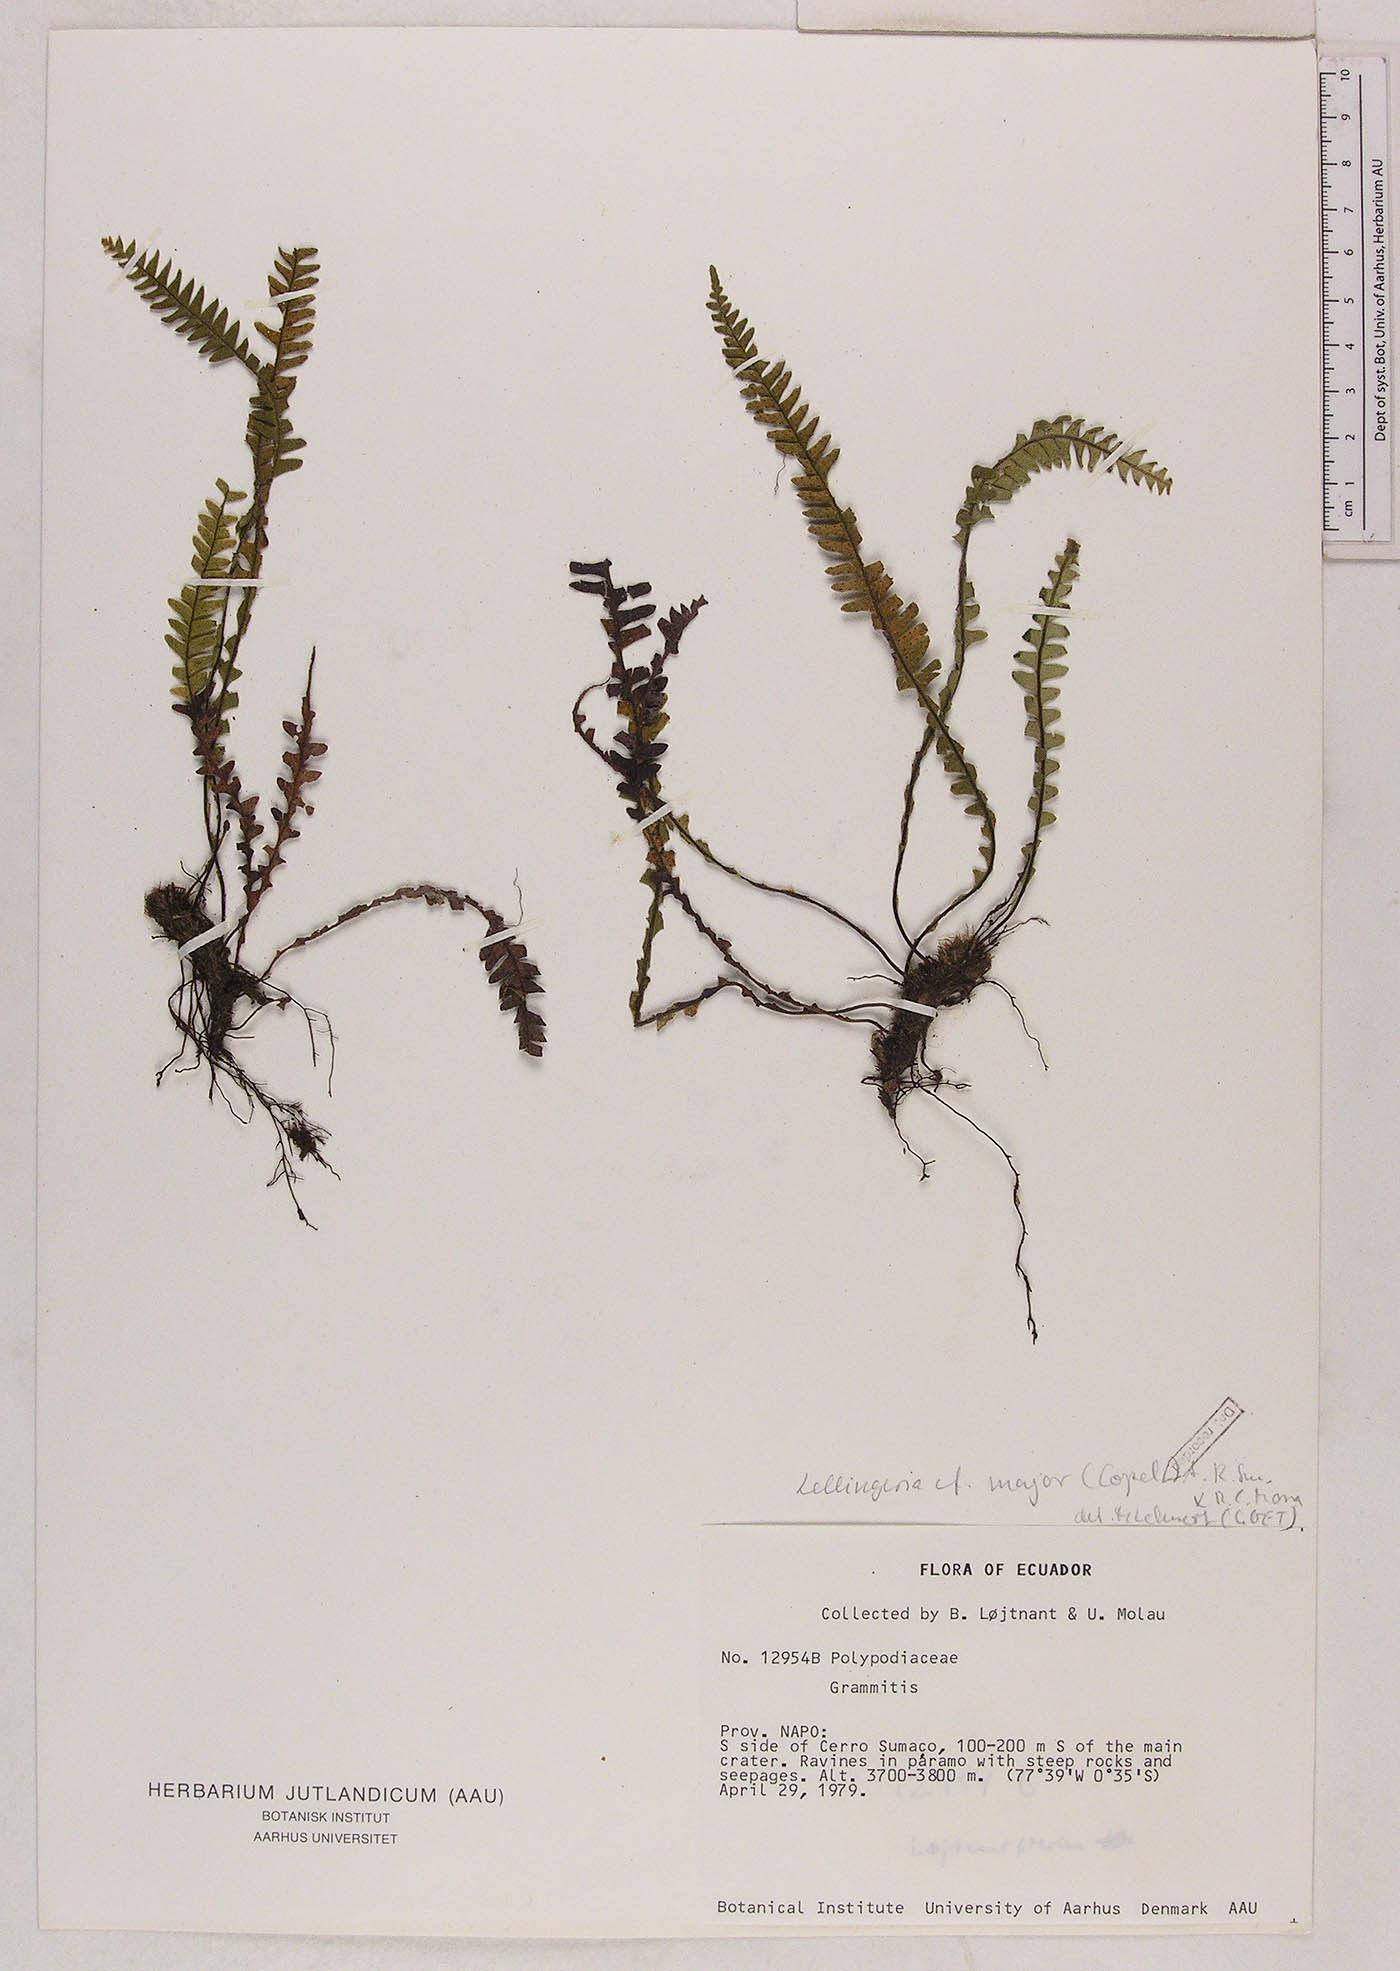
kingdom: Plantae
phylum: Tracheophyta
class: Polypodiopsida
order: Polypodiales
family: Polypodiaceae
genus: Lellingeria
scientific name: Lellingeria paramicola
